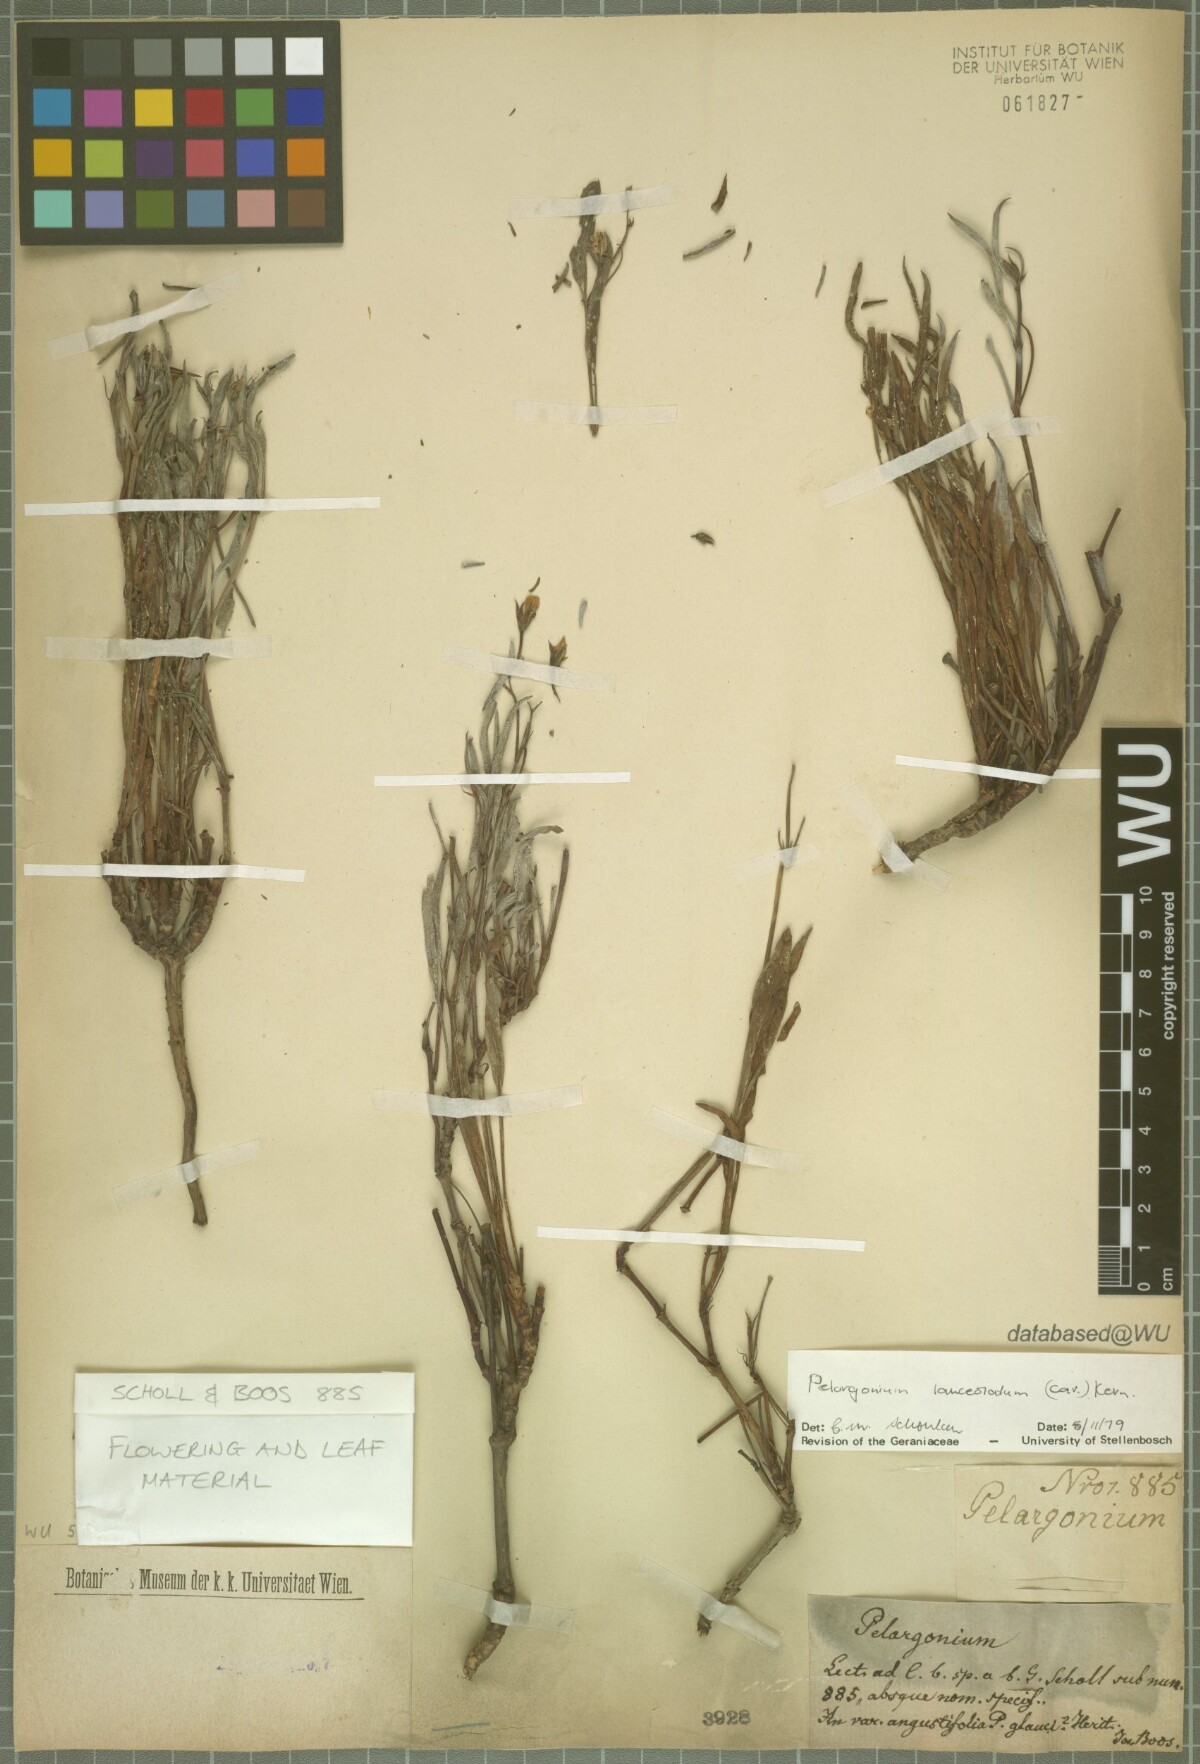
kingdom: Plantae
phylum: Tracheophyta
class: Magnoliopsida
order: Geraniales
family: Geraniaceae
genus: Pelargonium
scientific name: Pelargonium lanceolatum
